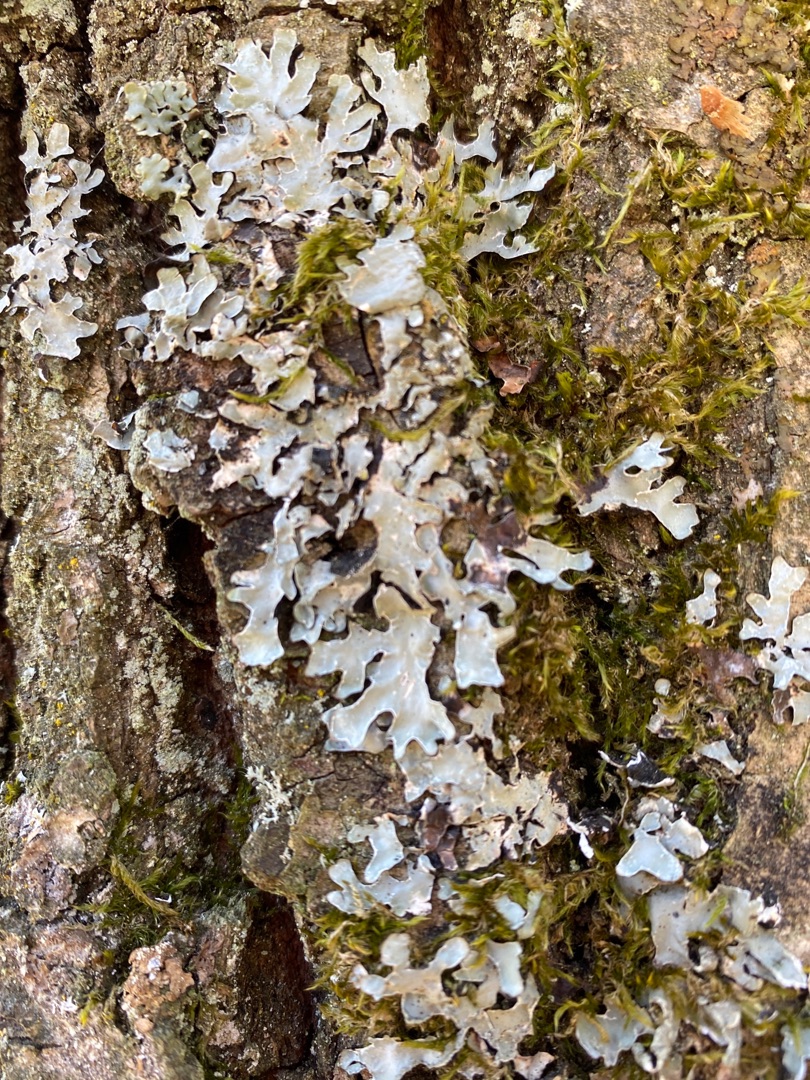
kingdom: Fungi
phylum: Ascomycota
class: Lecanoromycetes
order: Lecanorales
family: Parmeliaceae
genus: Parmelia
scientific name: Parmelia sulcata
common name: Rynket skållav
